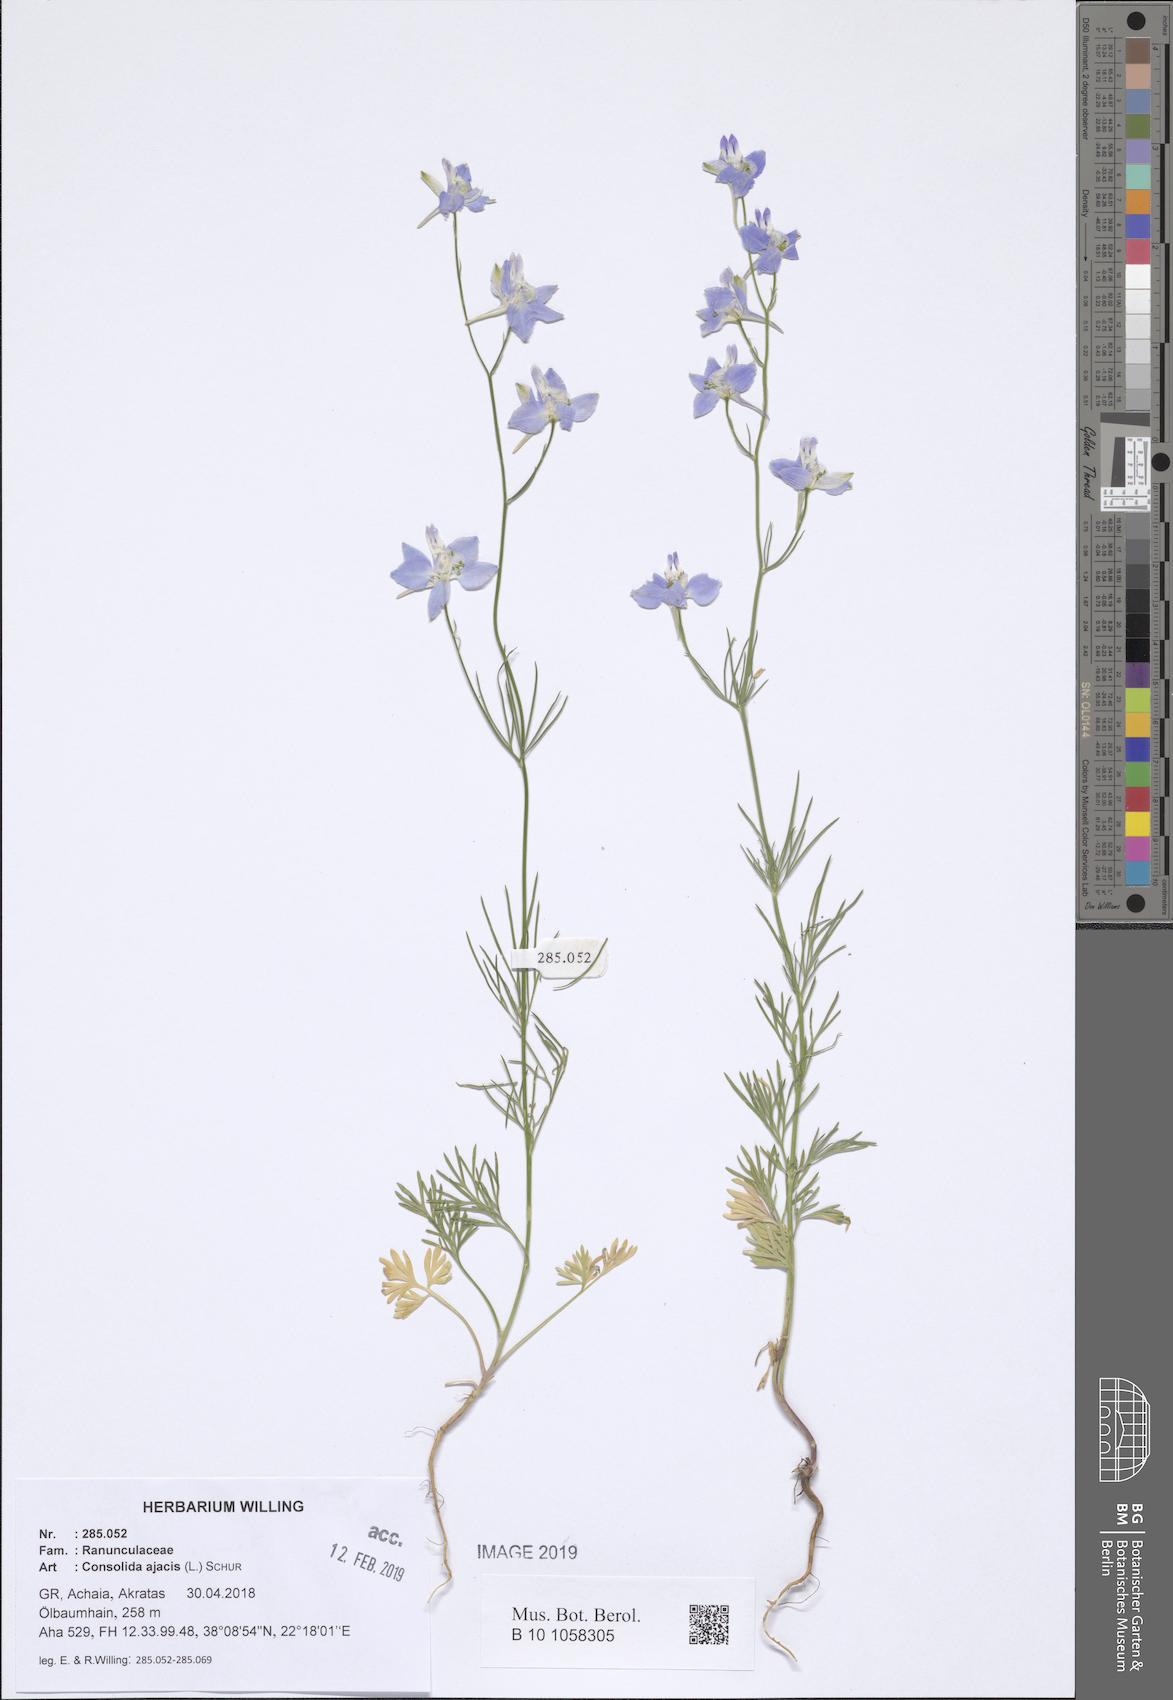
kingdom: Plantae
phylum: Tracheophyta
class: Magnoliopsida
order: Ranunculales
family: Ranunculaceae
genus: Delphinium
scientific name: Delphinium ajacis
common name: Doubtful knight's-spur
